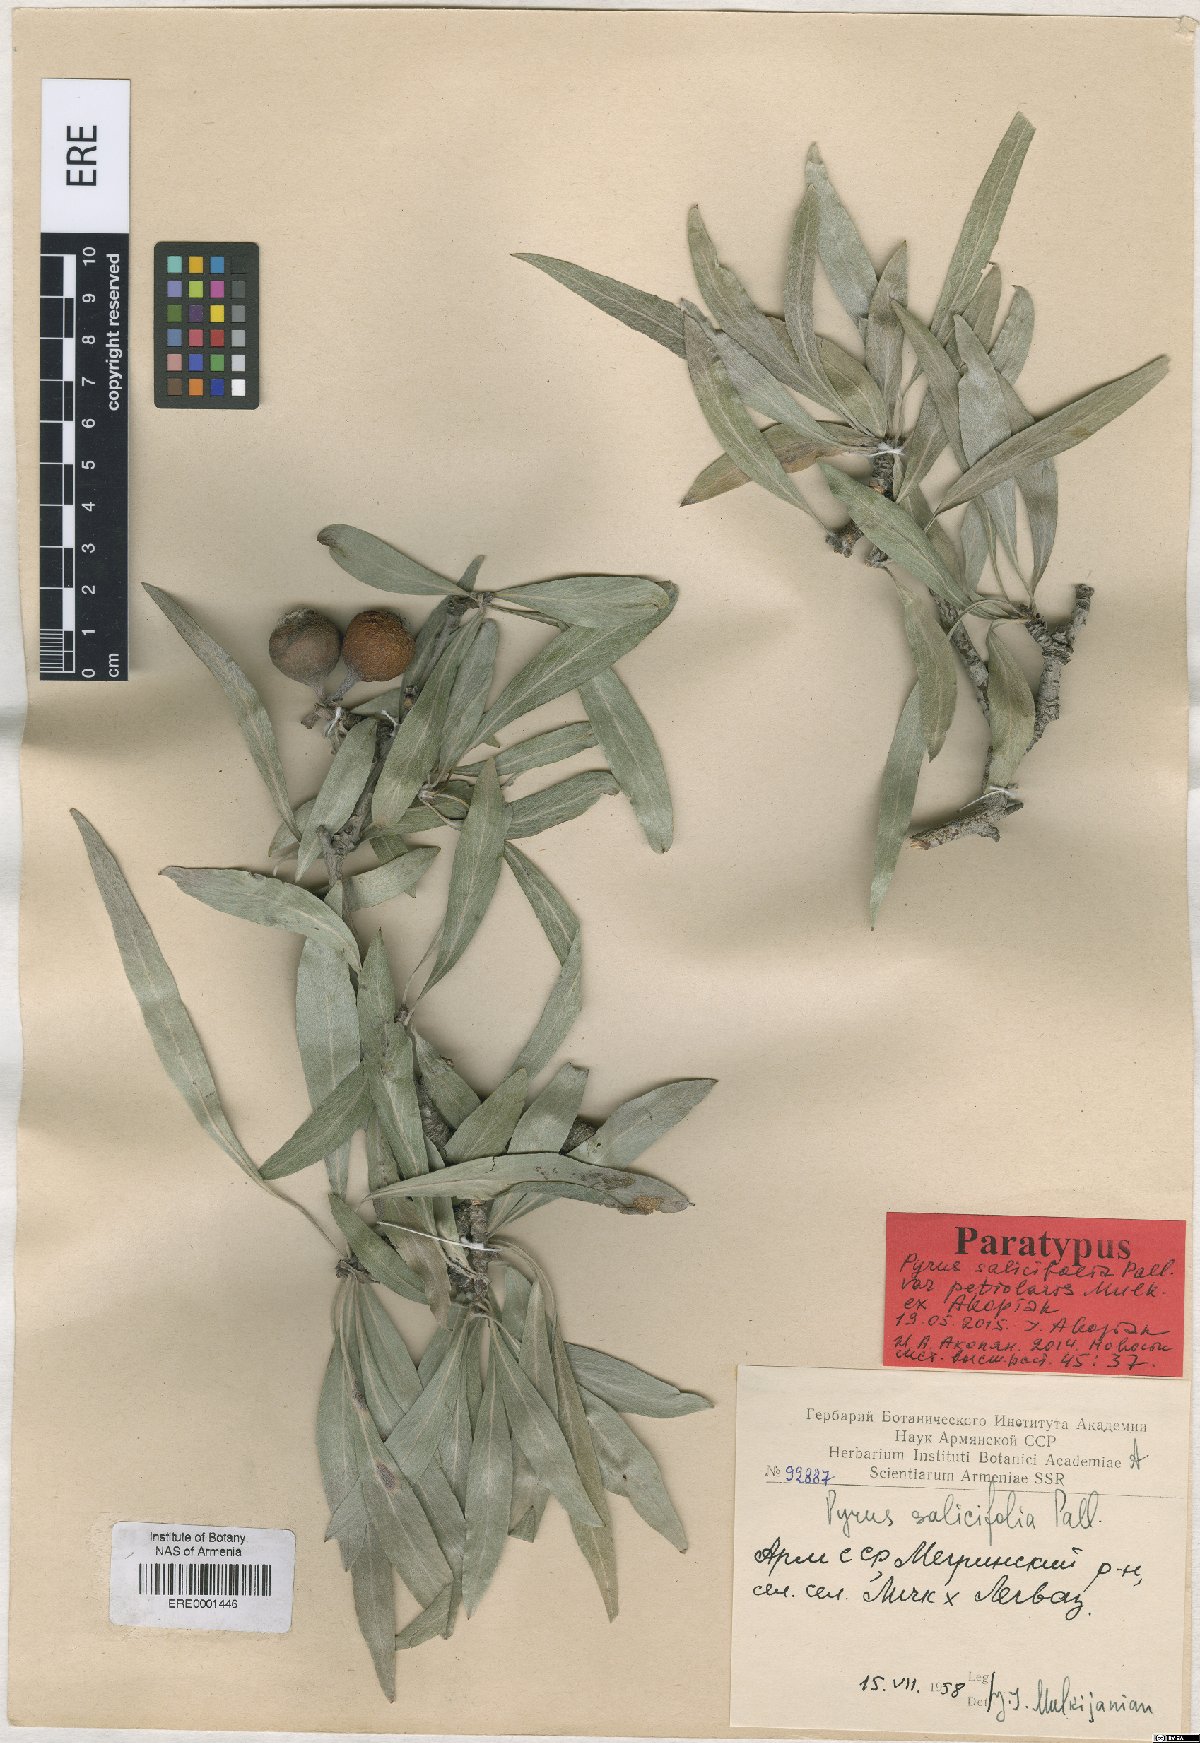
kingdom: Plantae
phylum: Tracheophyta
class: Magnoliopsida
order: Rosales
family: Rosaceae
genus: Pyrus
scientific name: Pyrus salicifolia
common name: Willow-leaved pear
